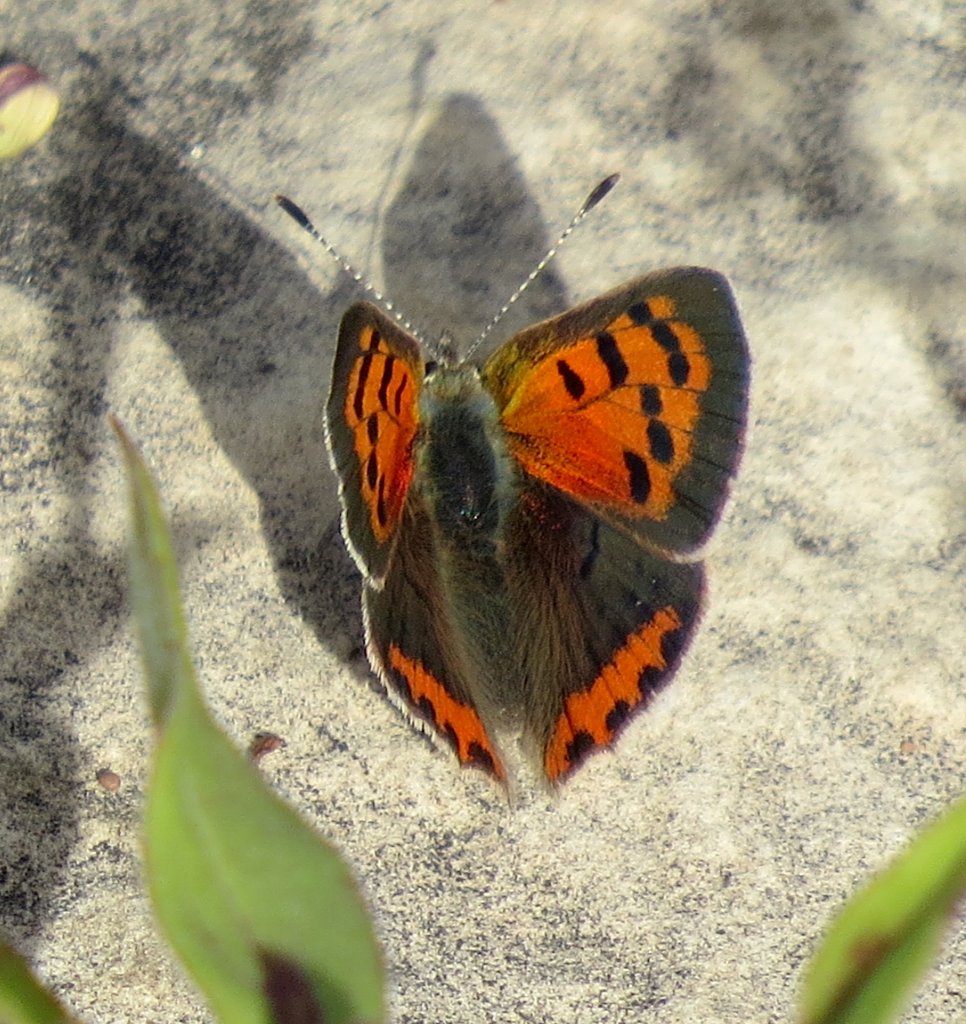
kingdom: Animalia
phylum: Arthropoda
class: Insecta
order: Lepidoptera
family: Lycaenidae
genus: Lycaena
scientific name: Lycaena phlaeas
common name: American Copper
